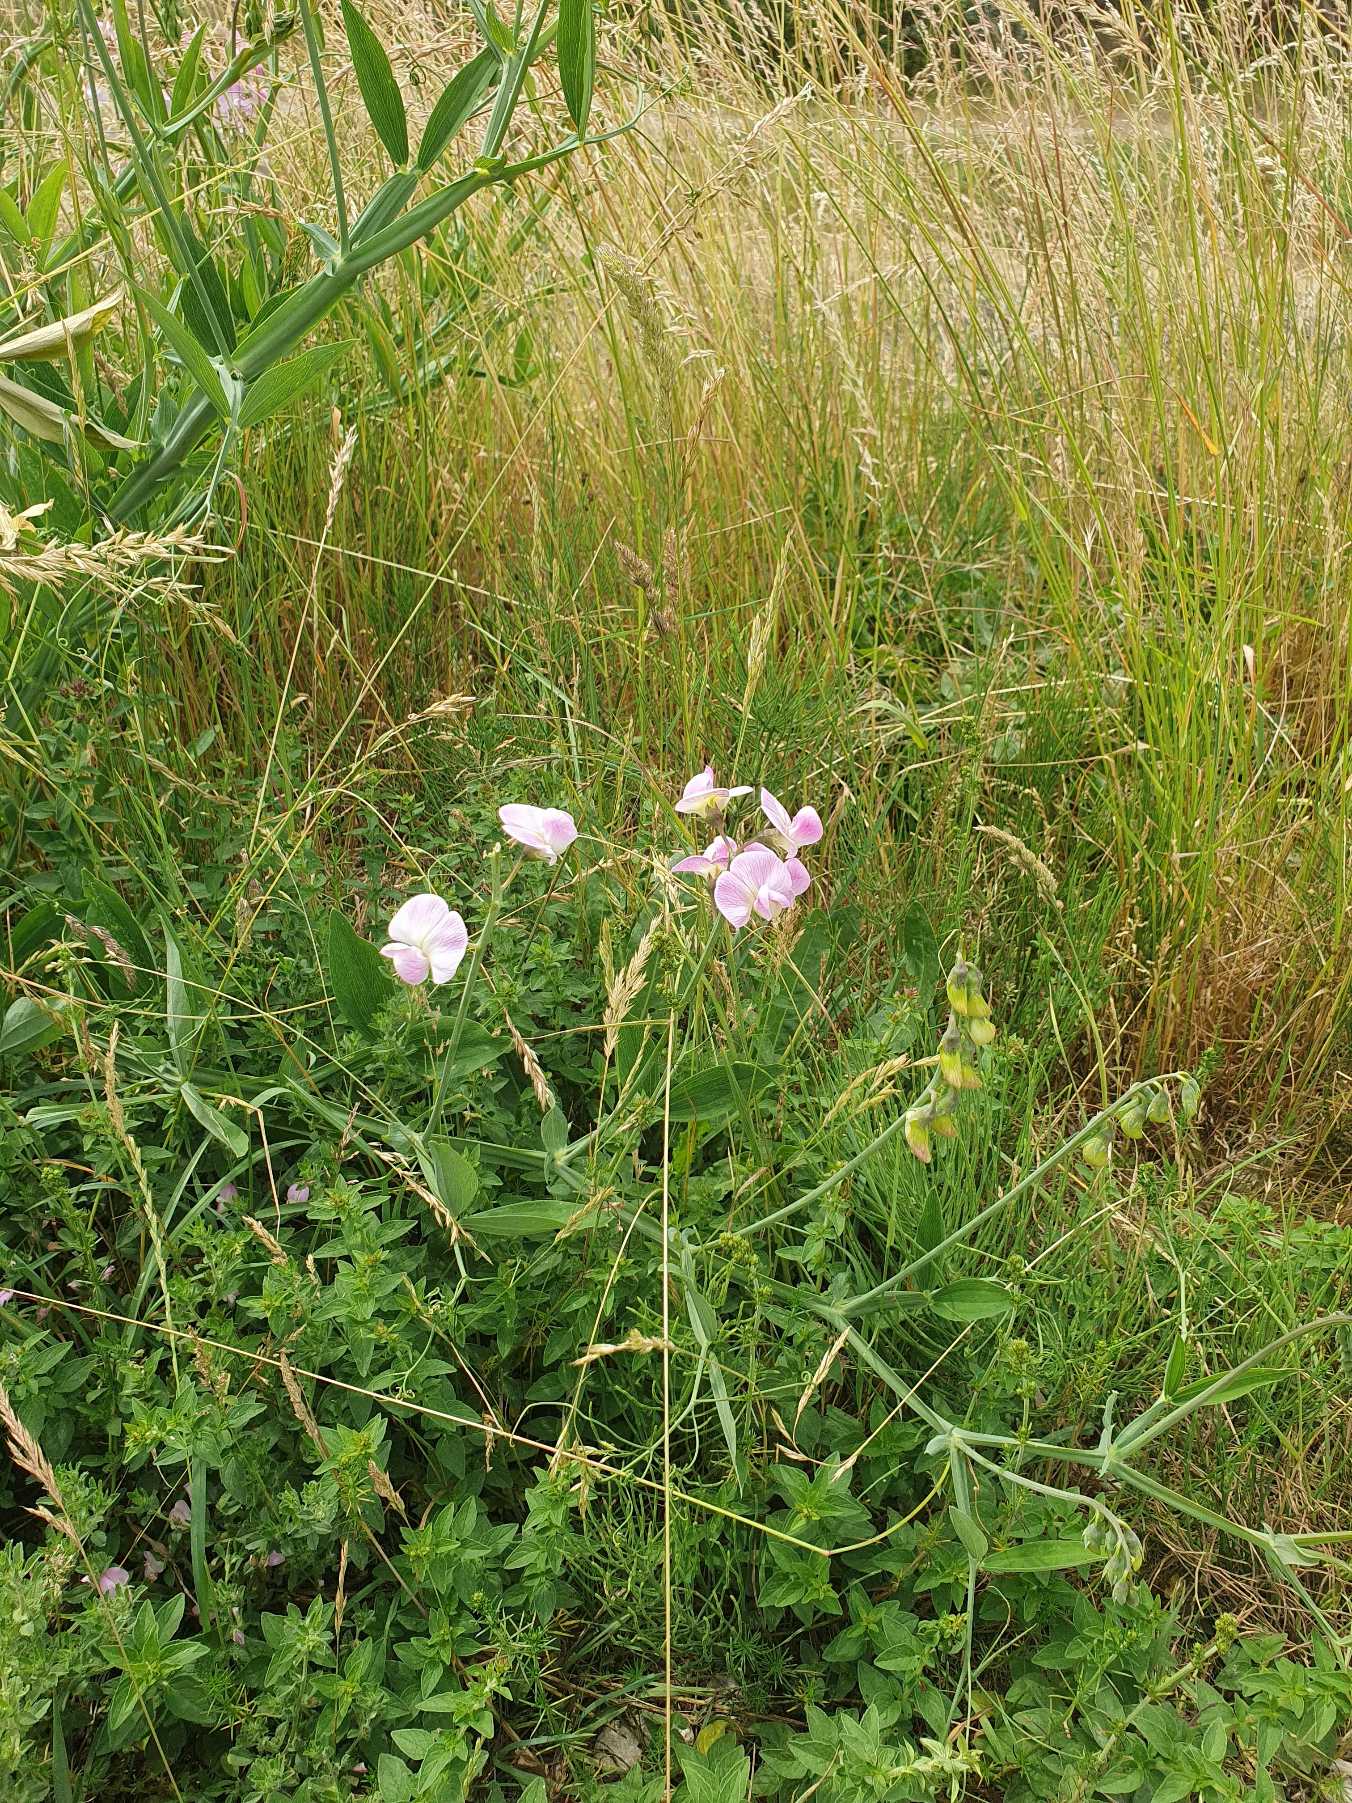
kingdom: Plantae
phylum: Tracheophyta
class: Magnoliopsida
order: Fabales
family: Fabaceae
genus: Lathyrus
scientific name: Lathyrus latifolius
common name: Flerårig ærteblomst
